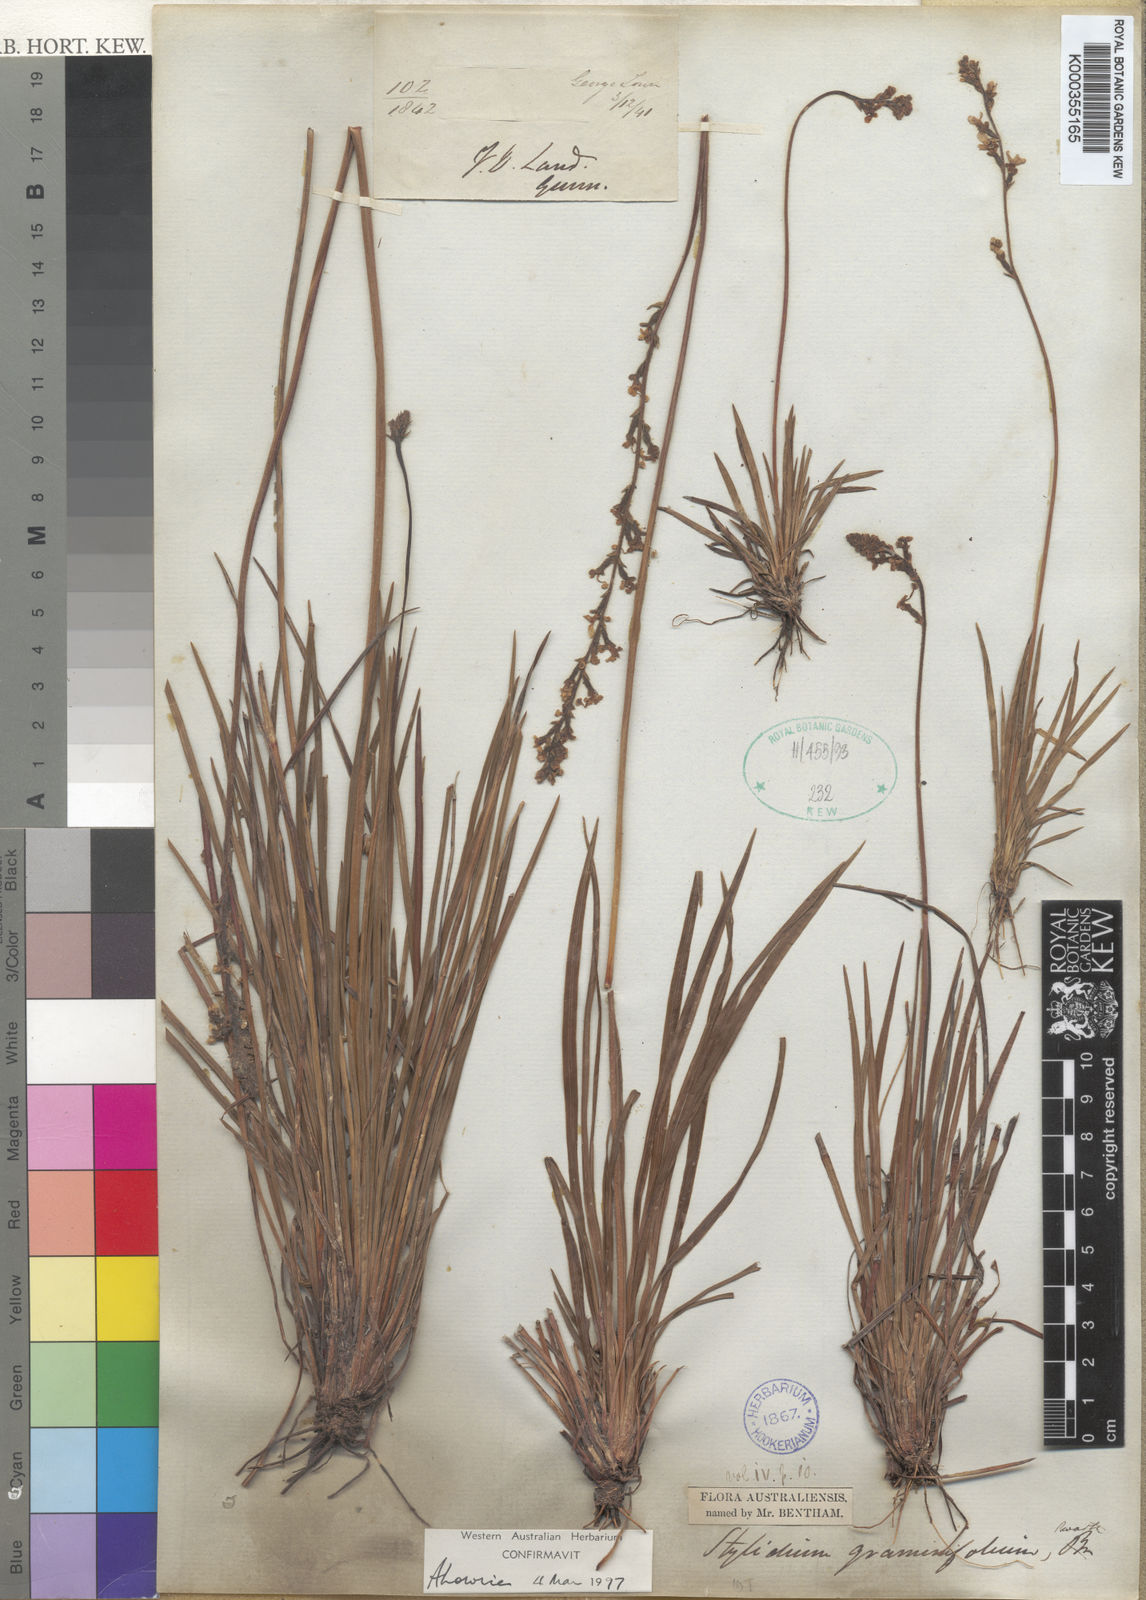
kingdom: Plantae
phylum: Tracheophyta
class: Magnoliopsida
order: Asterales
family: Stylidiaceae
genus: Stylidium
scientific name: Stylidium graminifolium
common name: Grass triggerplant
